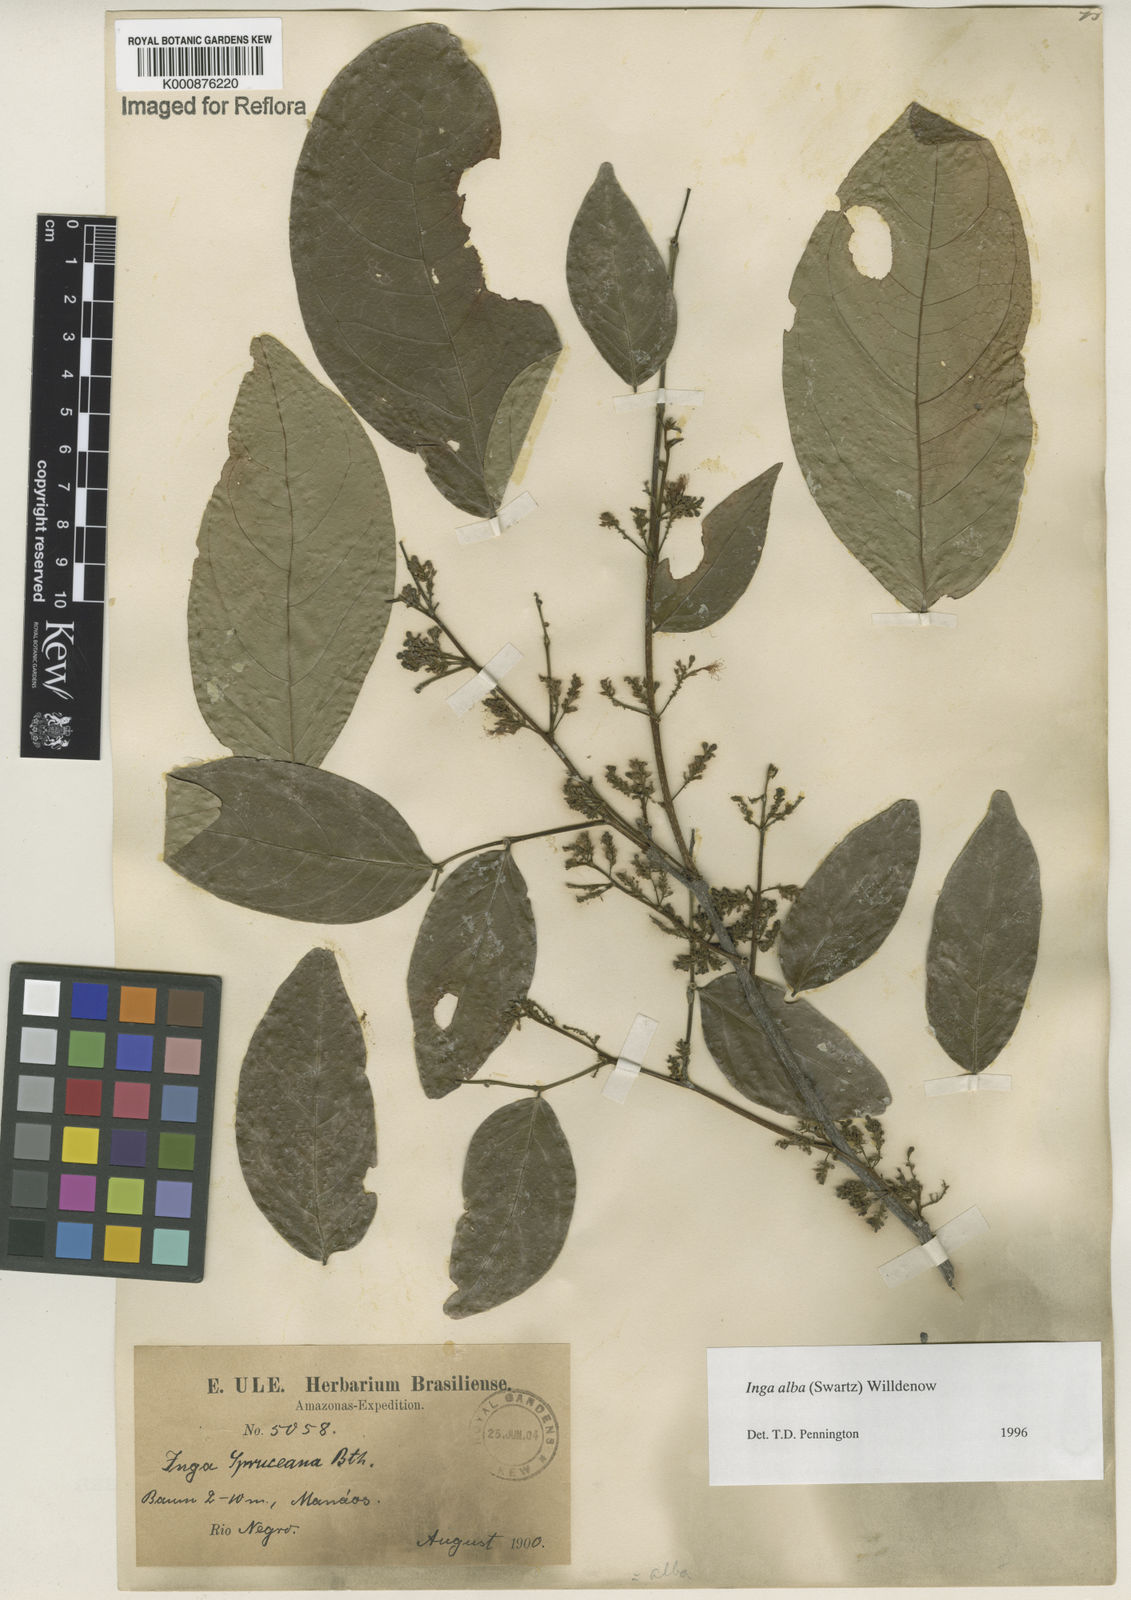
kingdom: Plantae
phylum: Tracheophyta
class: Magnoliopsida
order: Fabales
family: Fabaceae
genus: Inga
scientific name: Inga alba
